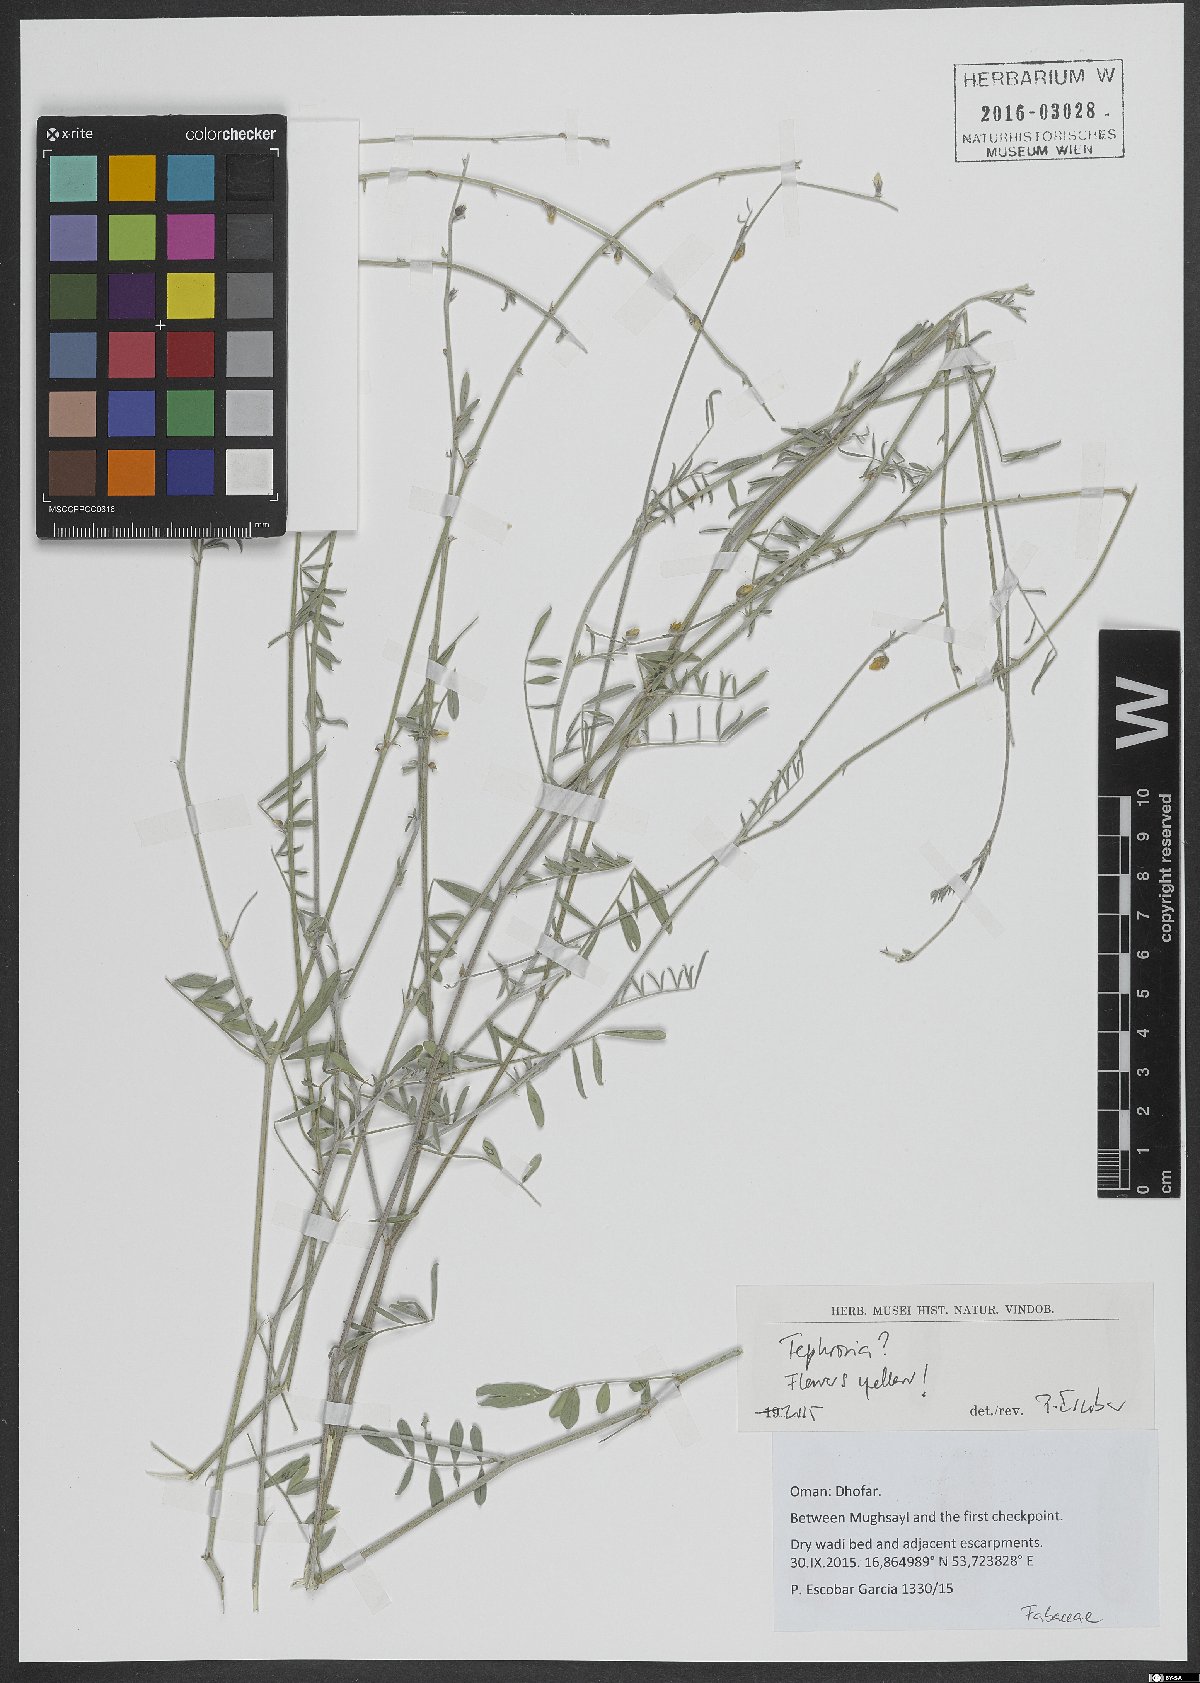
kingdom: Plantae
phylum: Tracheophyta
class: Magnoliopsida
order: Fabales
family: Fabaceae
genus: Tephrosia
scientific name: Tephrosia
